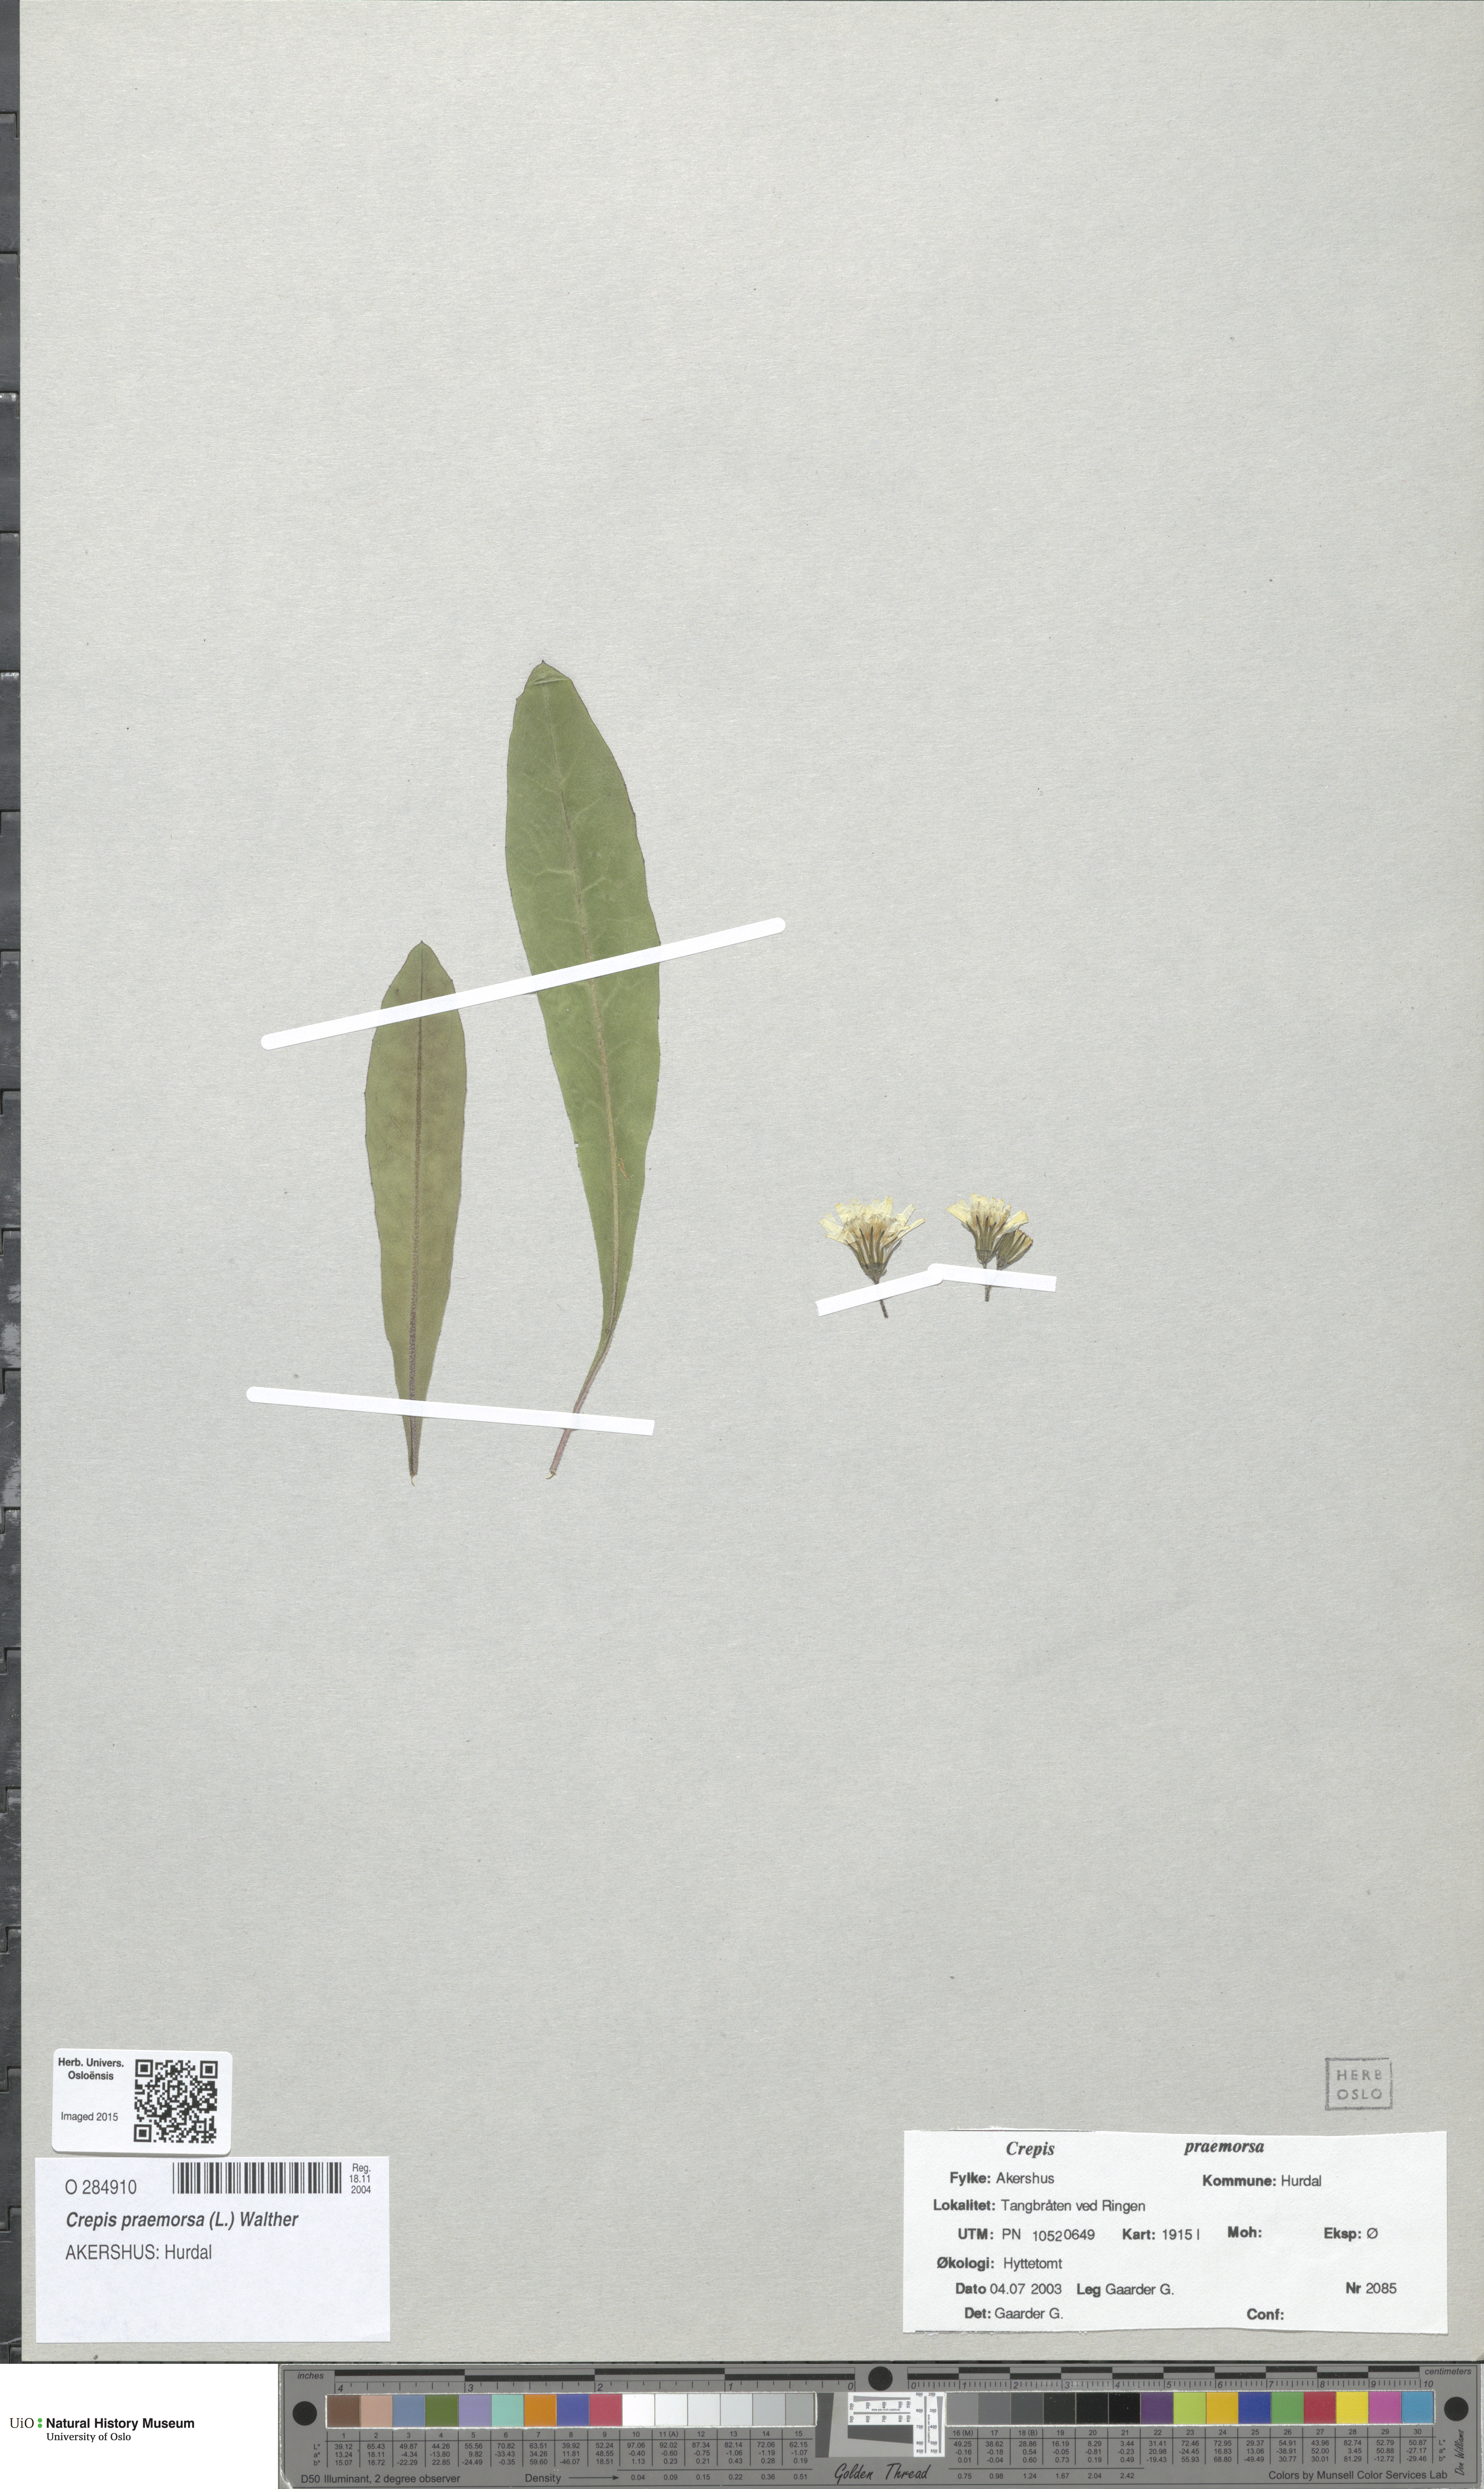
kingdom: Plantae
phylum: Tracheophyta
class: Magnoliopsida
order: Asterales
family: Asteraceae
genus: Crepis
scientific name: Crepis praemorsa
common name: Leafless hawk's-beard
